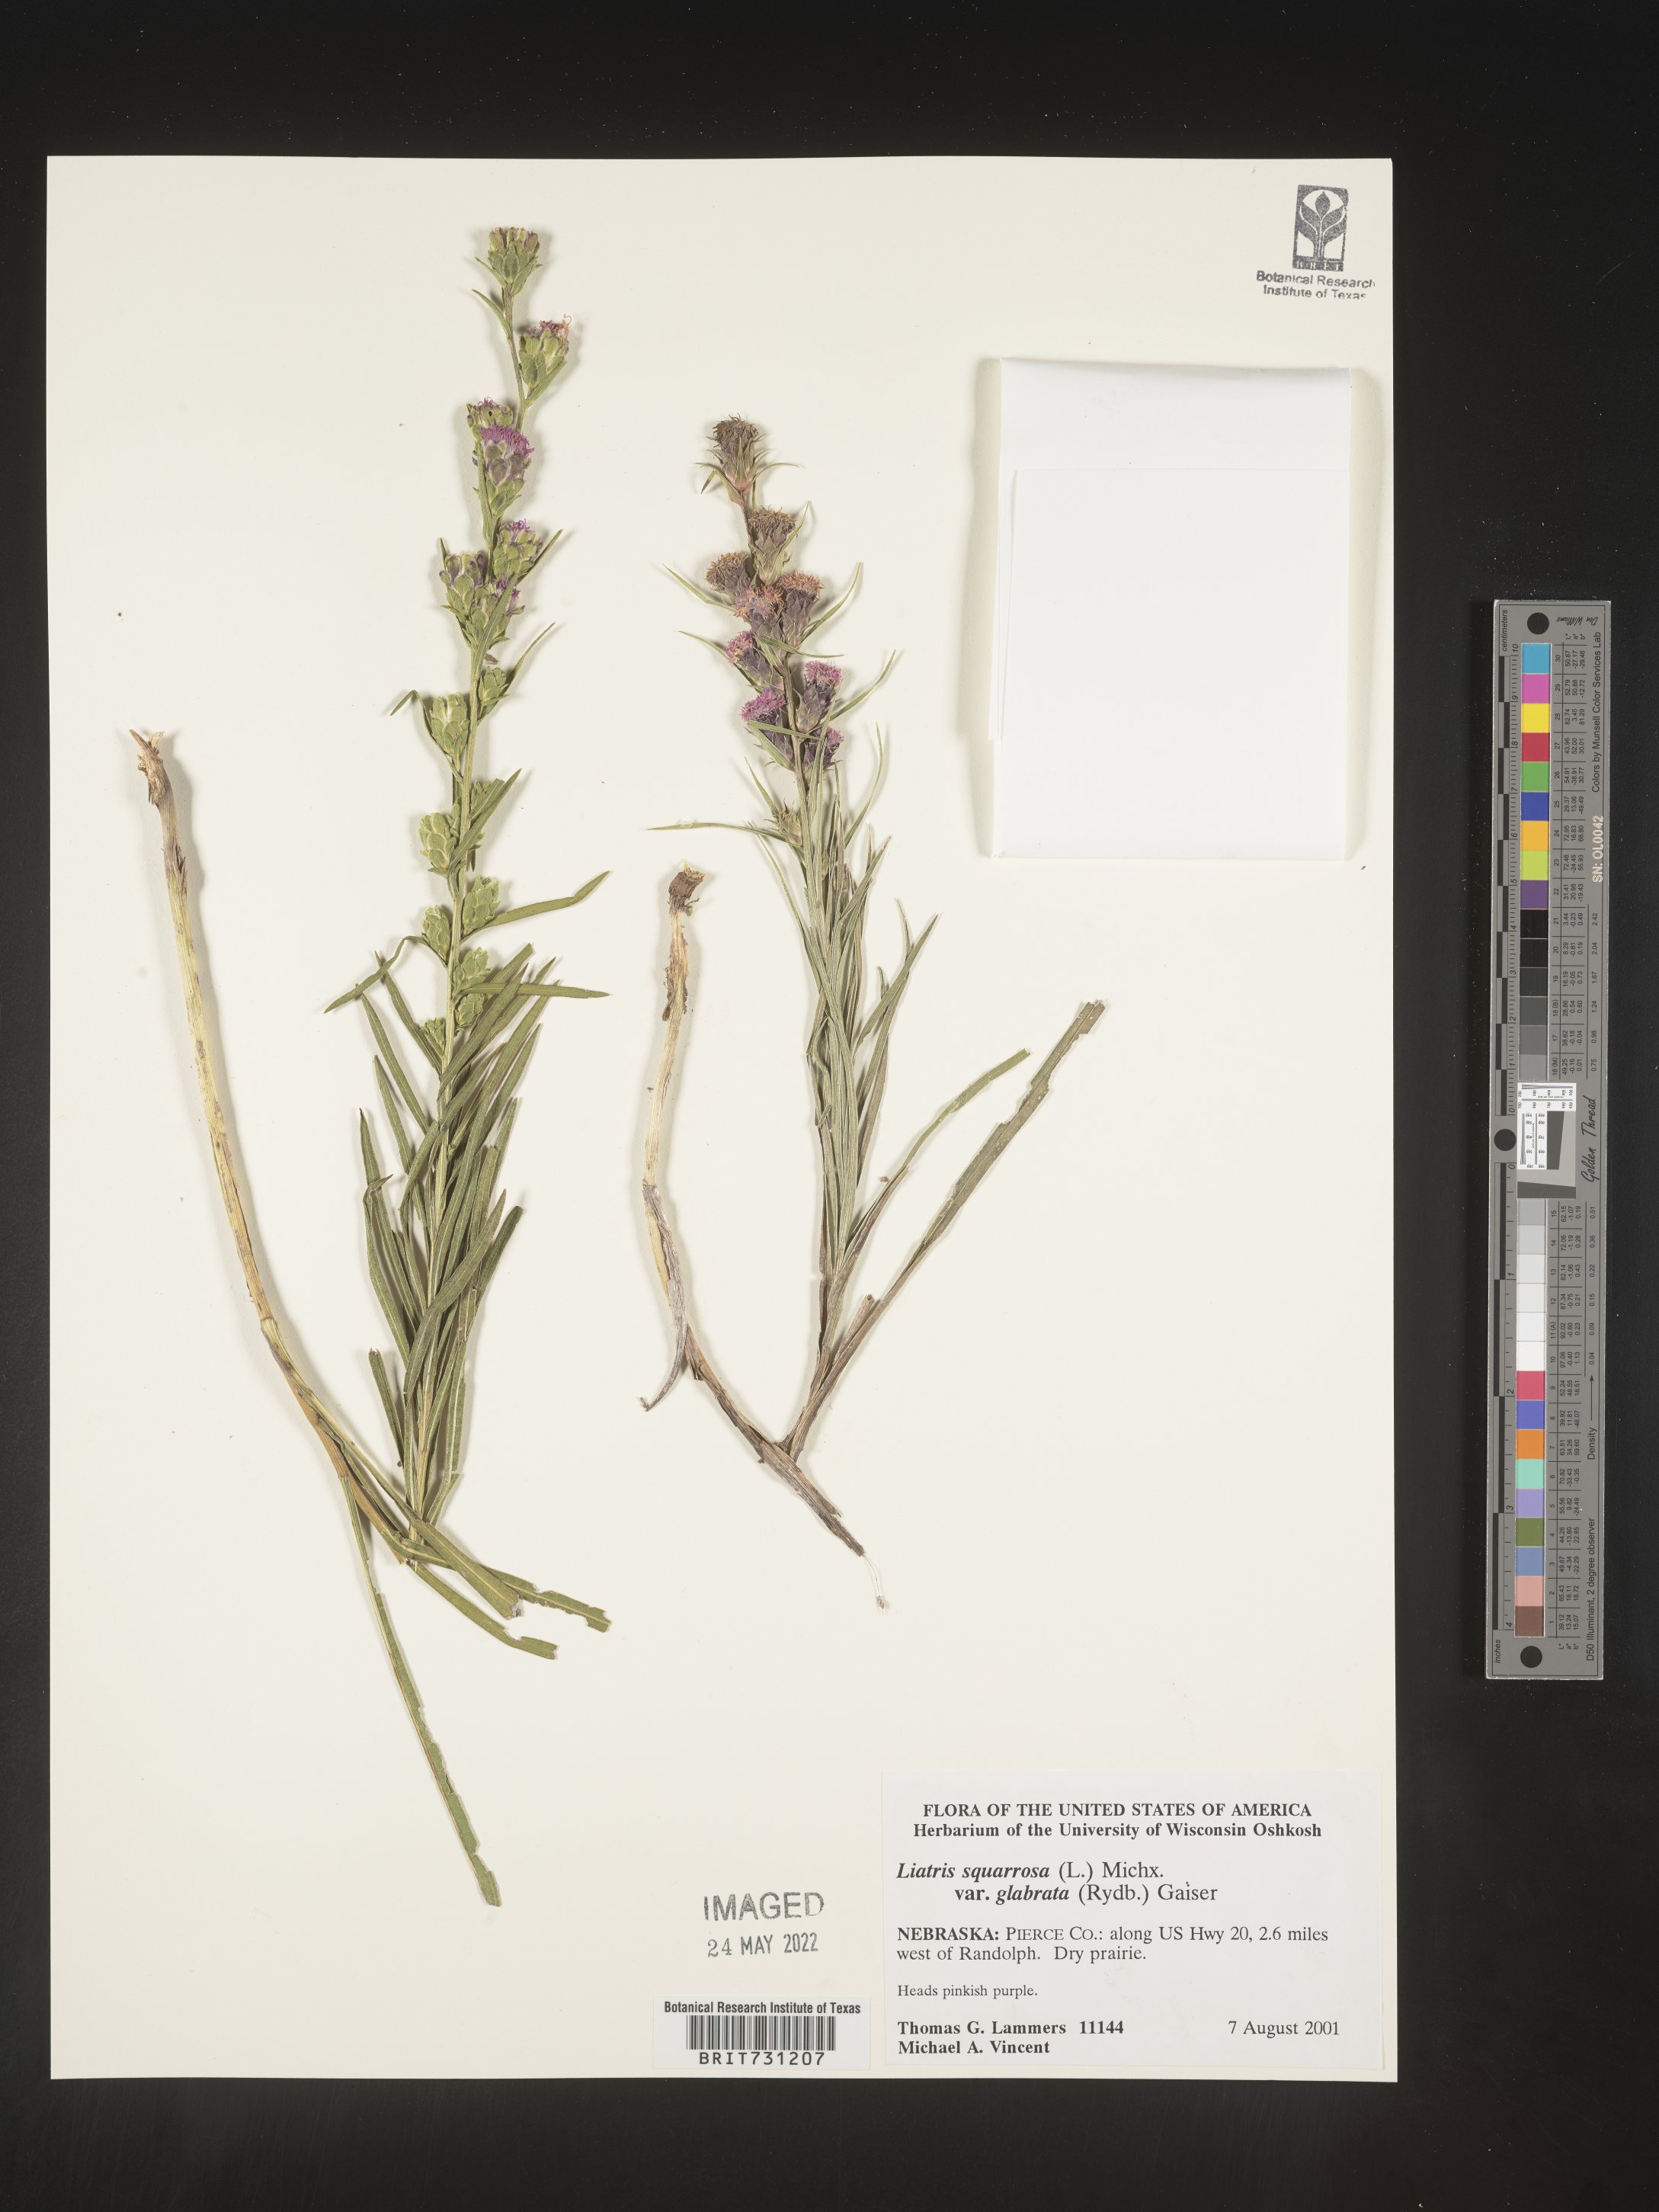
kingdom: Plantae
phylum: Tracheophyta
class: Magnoliopsida
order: Asterales
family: Asteraceae
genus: Liatris
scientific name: Liatris squarrosa
